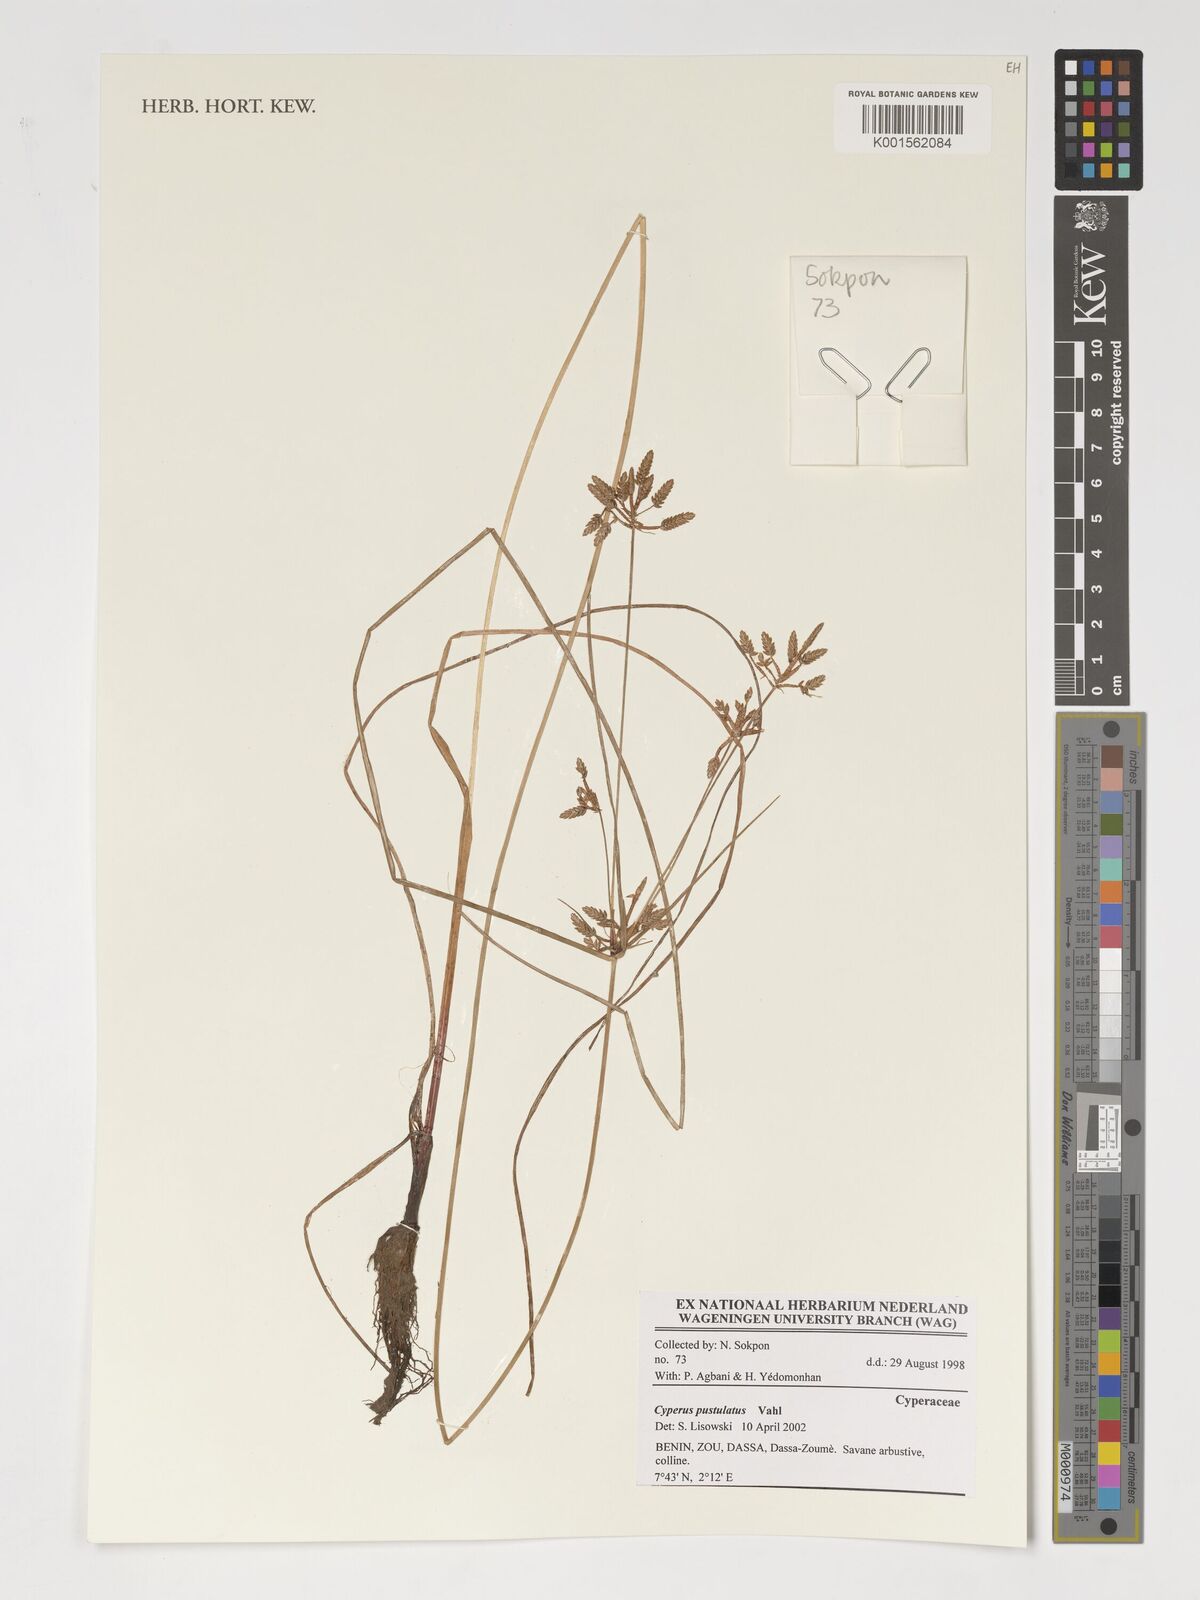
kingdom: Plantae
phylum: Tracheophyta
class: Liliopsida
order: Poales
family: Cyperaceae
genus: Cyperus
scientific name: Cyperus pustulatus
